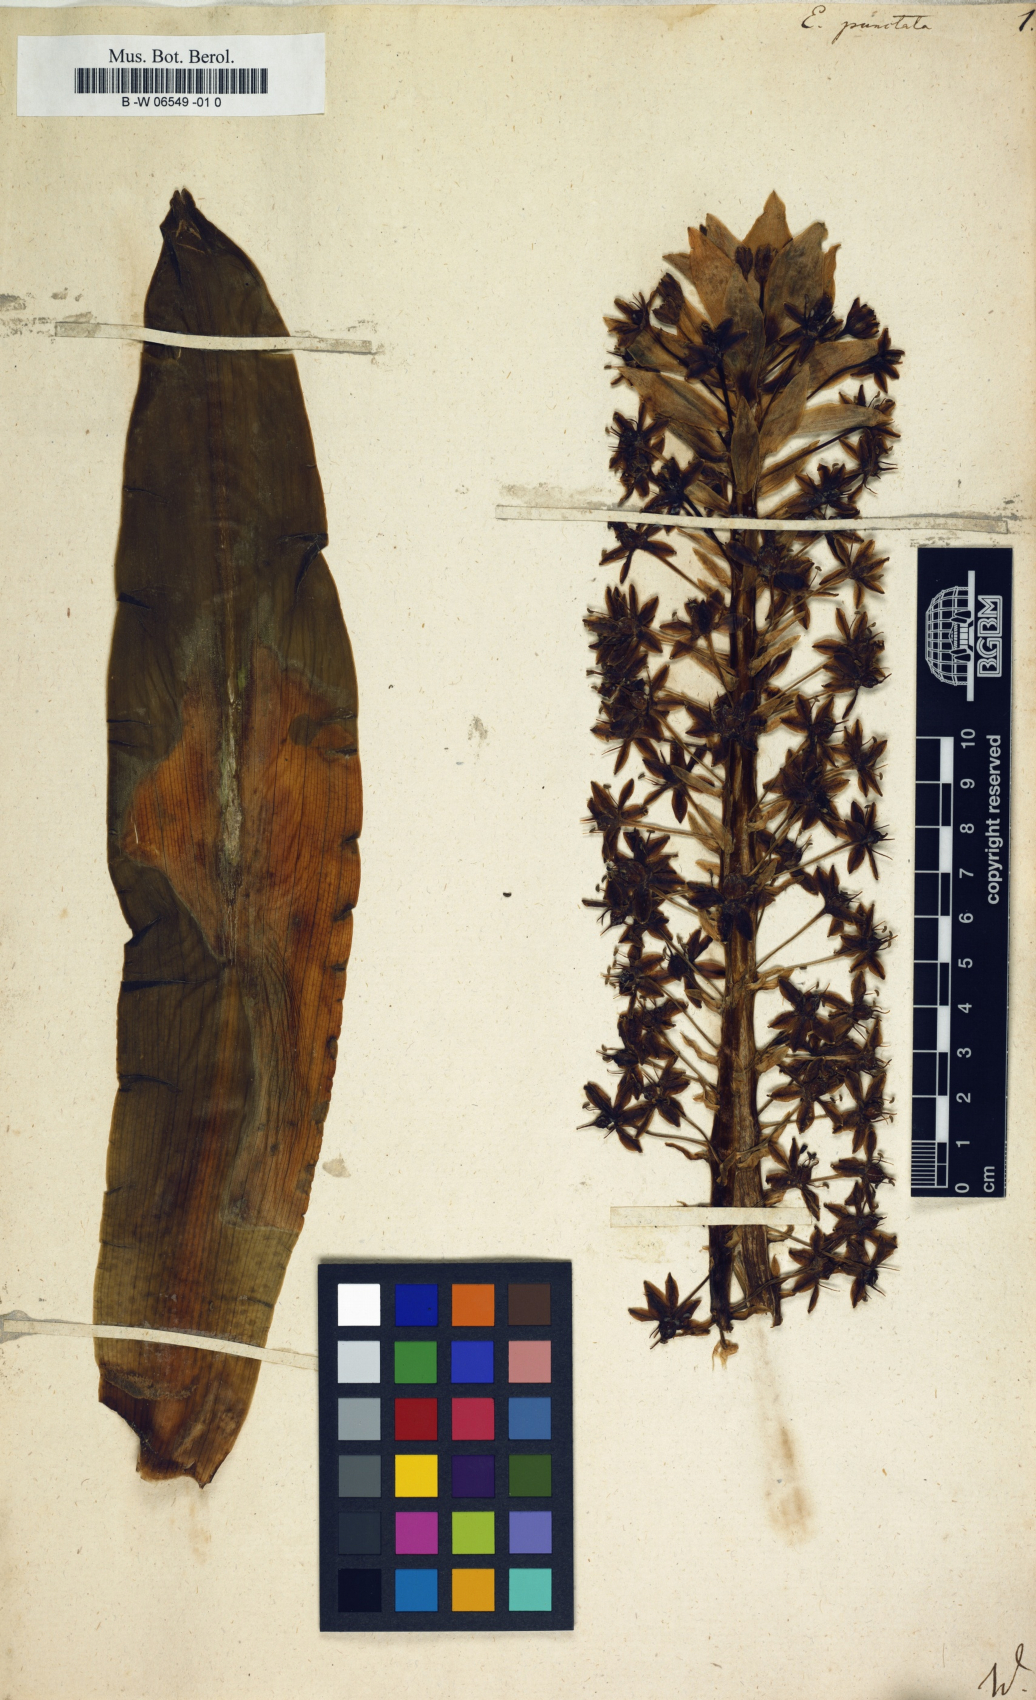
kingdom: Plantae
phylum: Tracheophyta
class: Liliopsida
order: Asparagales
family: Asparagaceae
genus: Eucomis
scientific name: Eucomis
